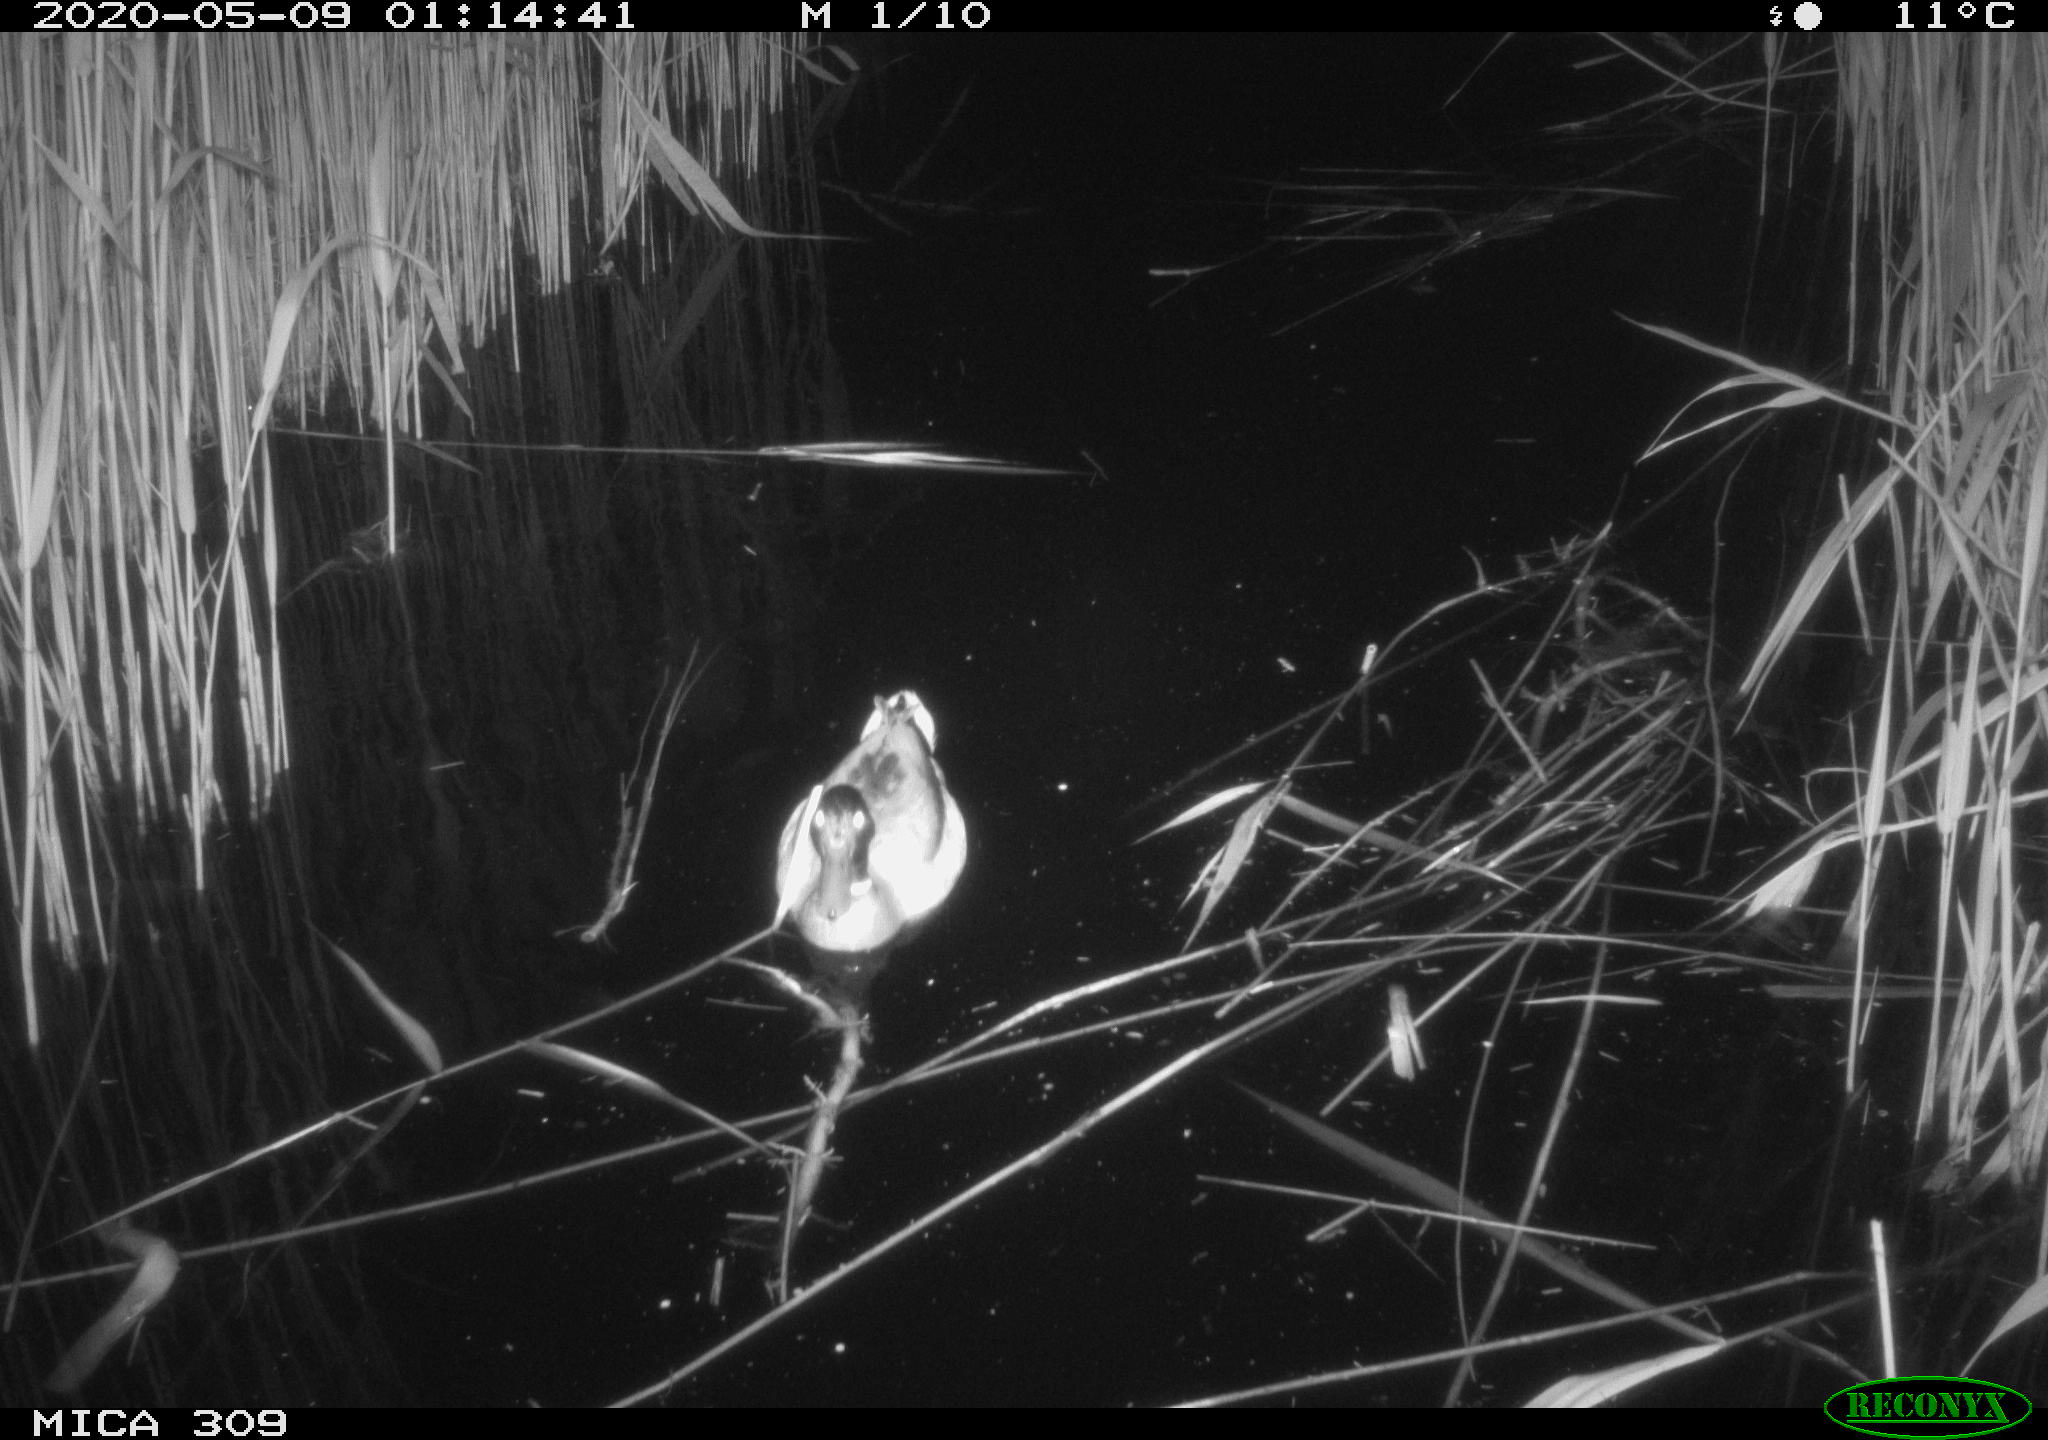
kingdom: Animalia
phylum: Chordata
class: Aves
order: Anseriformes
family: Anatidae
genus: Anas
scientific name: Anas platyrhynchos
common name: Mallard
